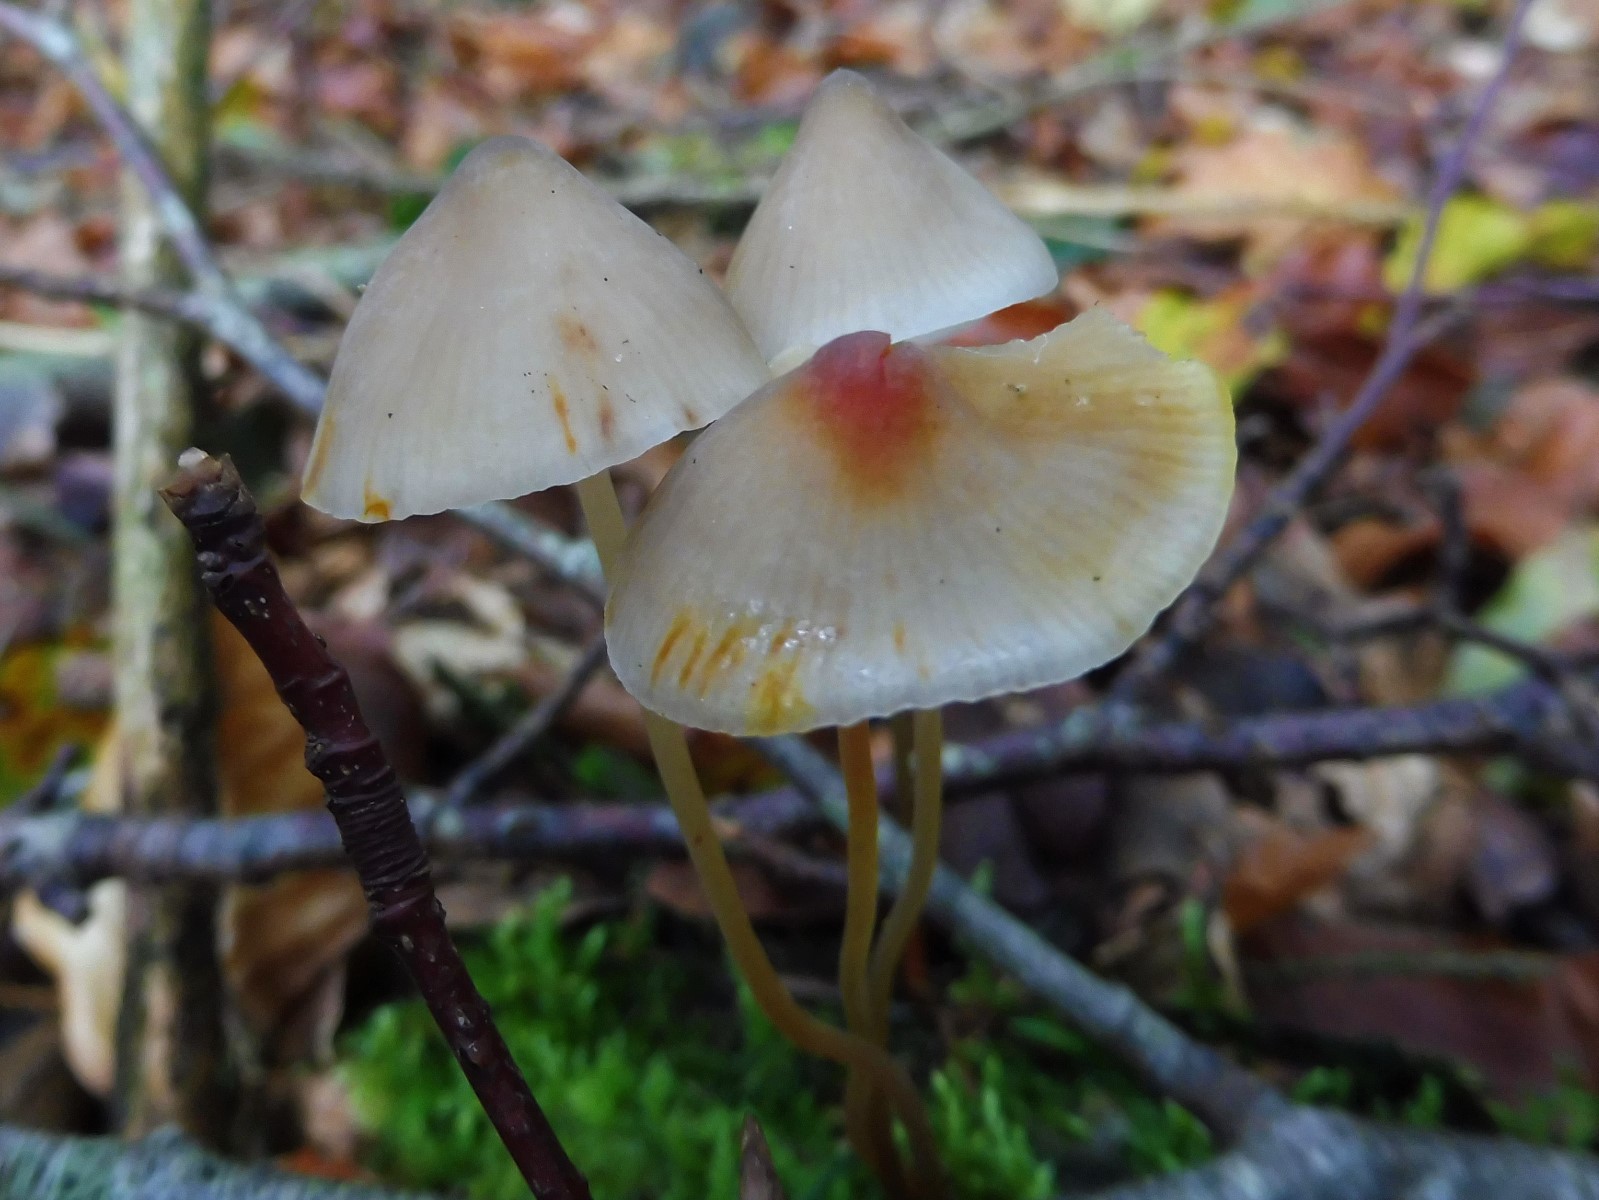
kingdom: Fungi
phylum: Basidiomycota
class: Agaricomycetes
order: Agaricales
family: Mycenaceae
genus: Mycena
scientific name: Mycena crocata
